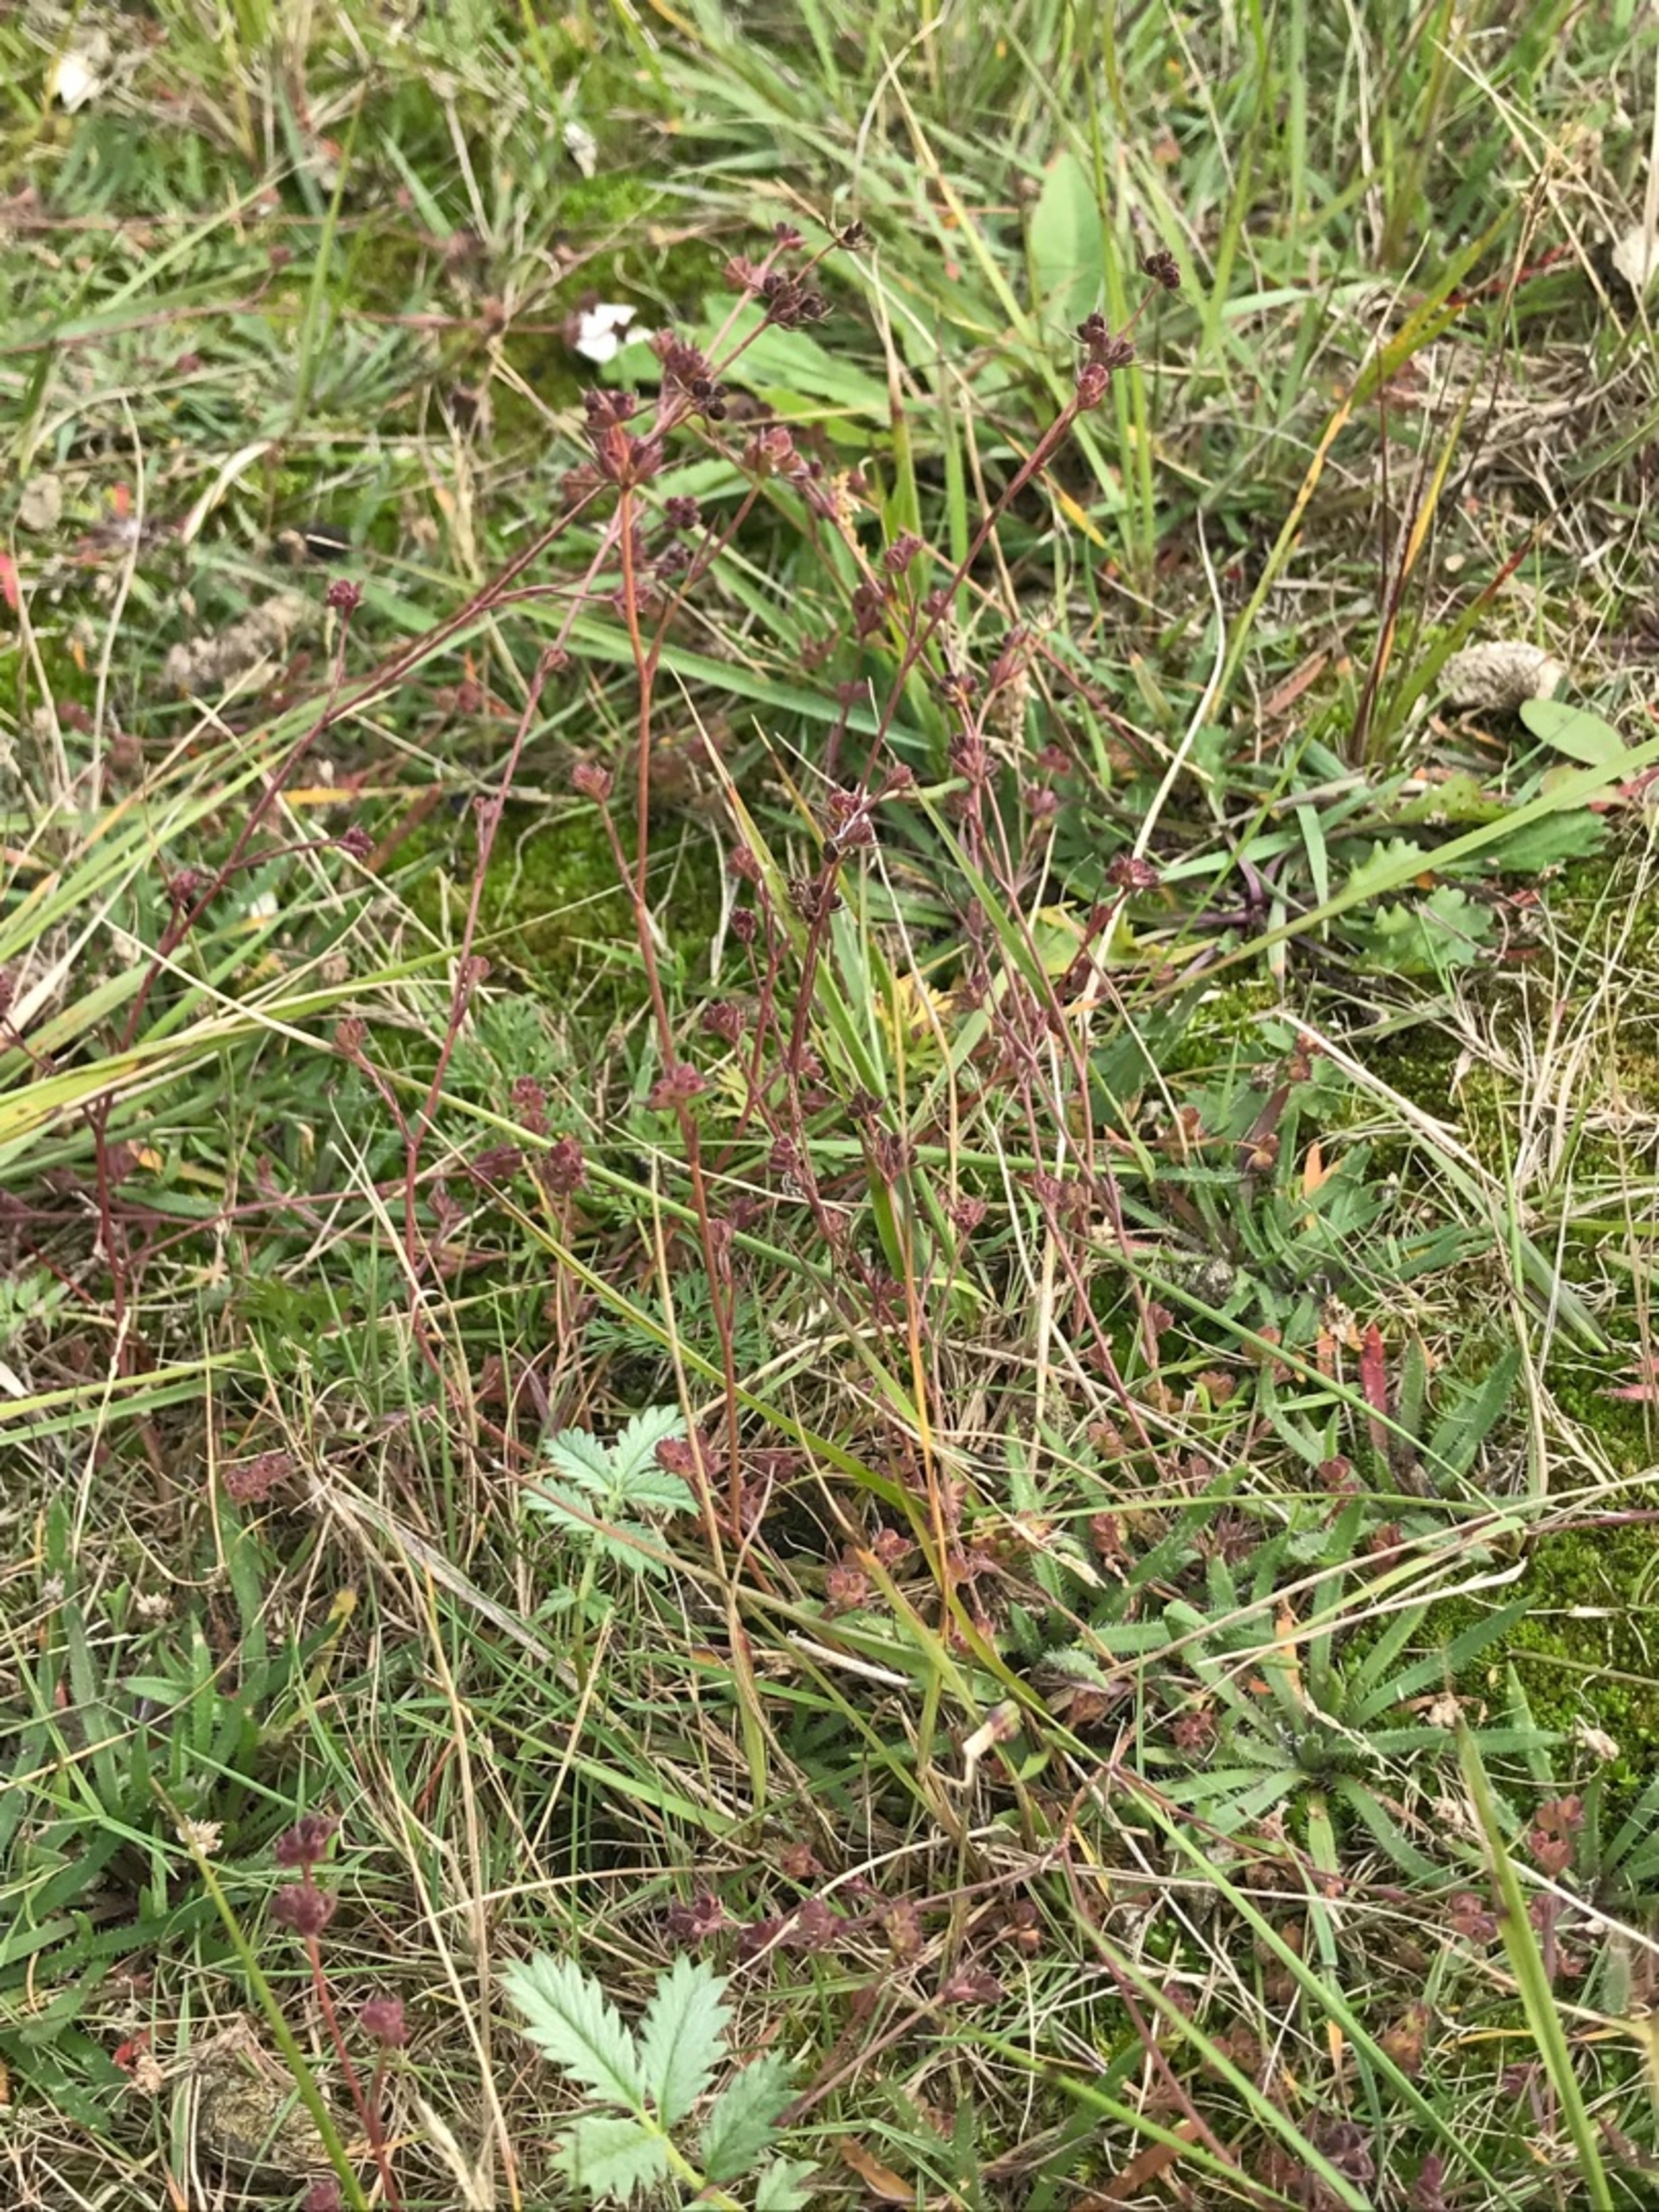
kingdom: Plantae
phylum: Tracheophyta
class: Magnoliopsida
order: Apiales
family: Apiaceae
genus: Bupleurum
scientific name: Bupleurum tenuissimum
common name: Smalbladet hareøre
